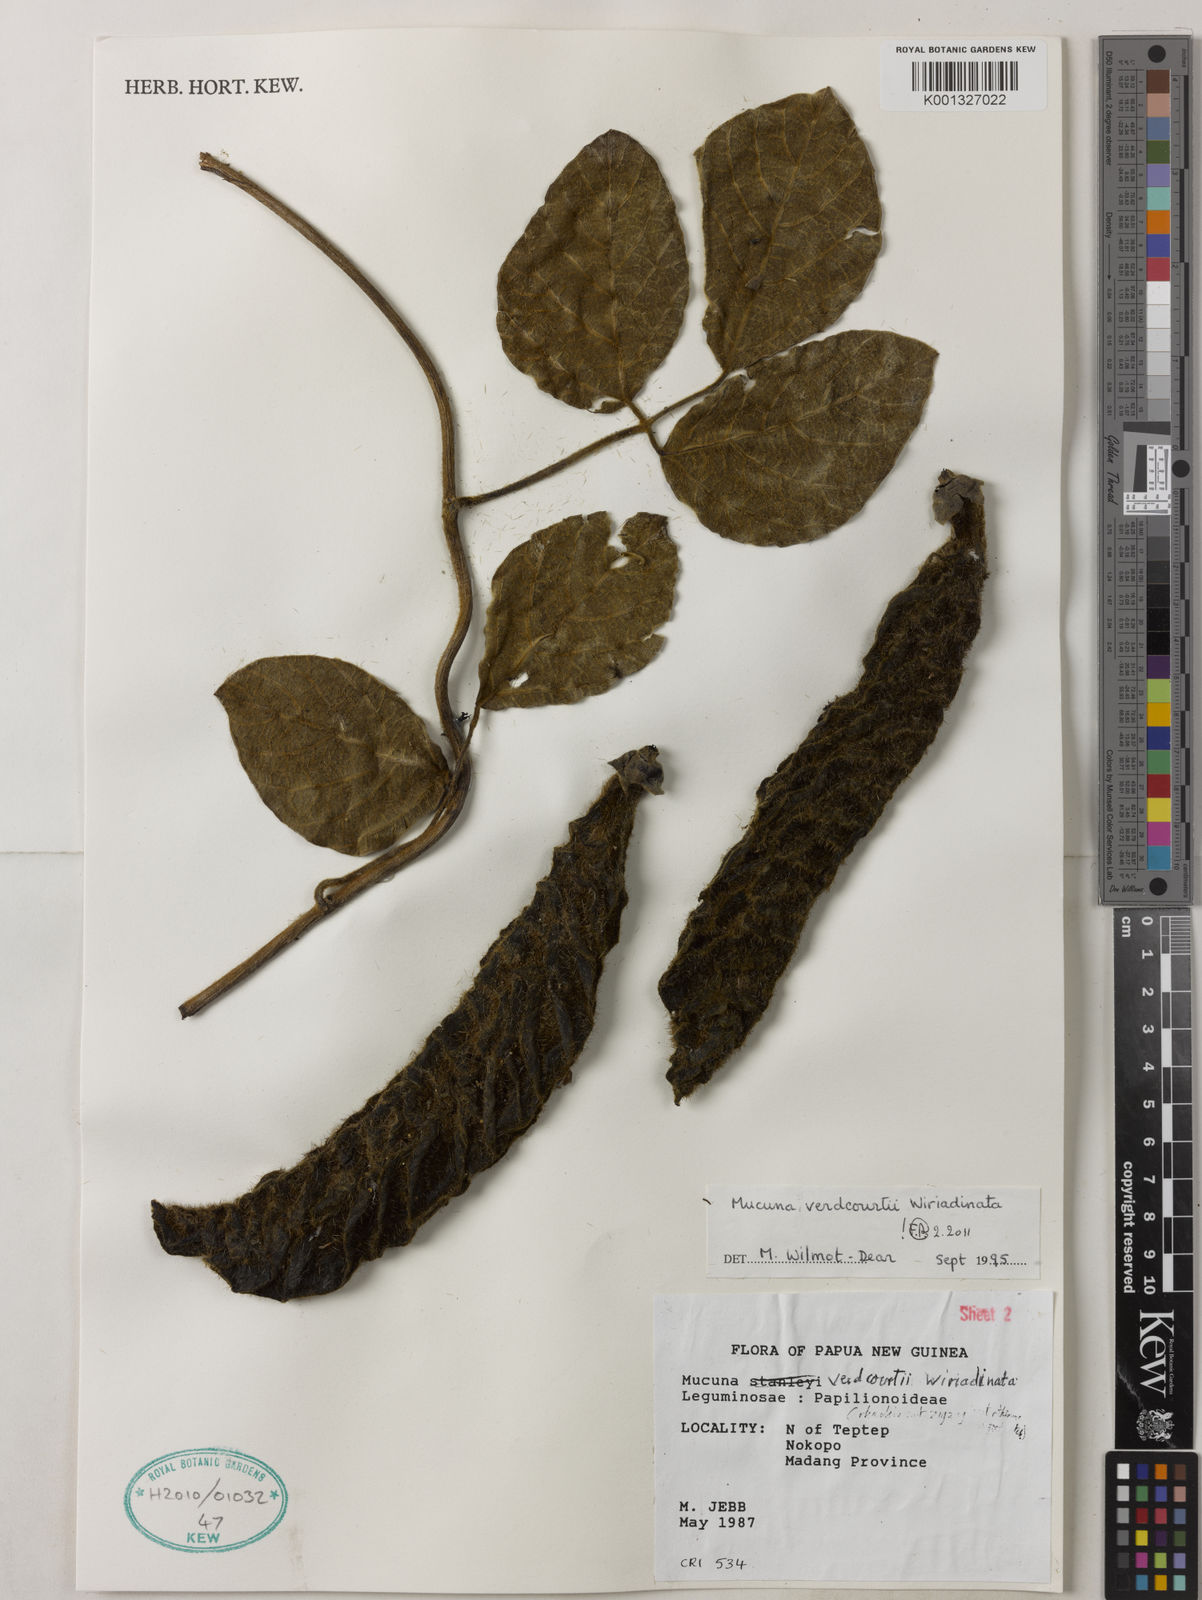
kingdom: Plantae
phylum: Tracheophyta
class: Magnoliopsida
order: Fabales
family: Fabaceae
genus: Mucuna
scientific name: Mucuna verdcourtii
